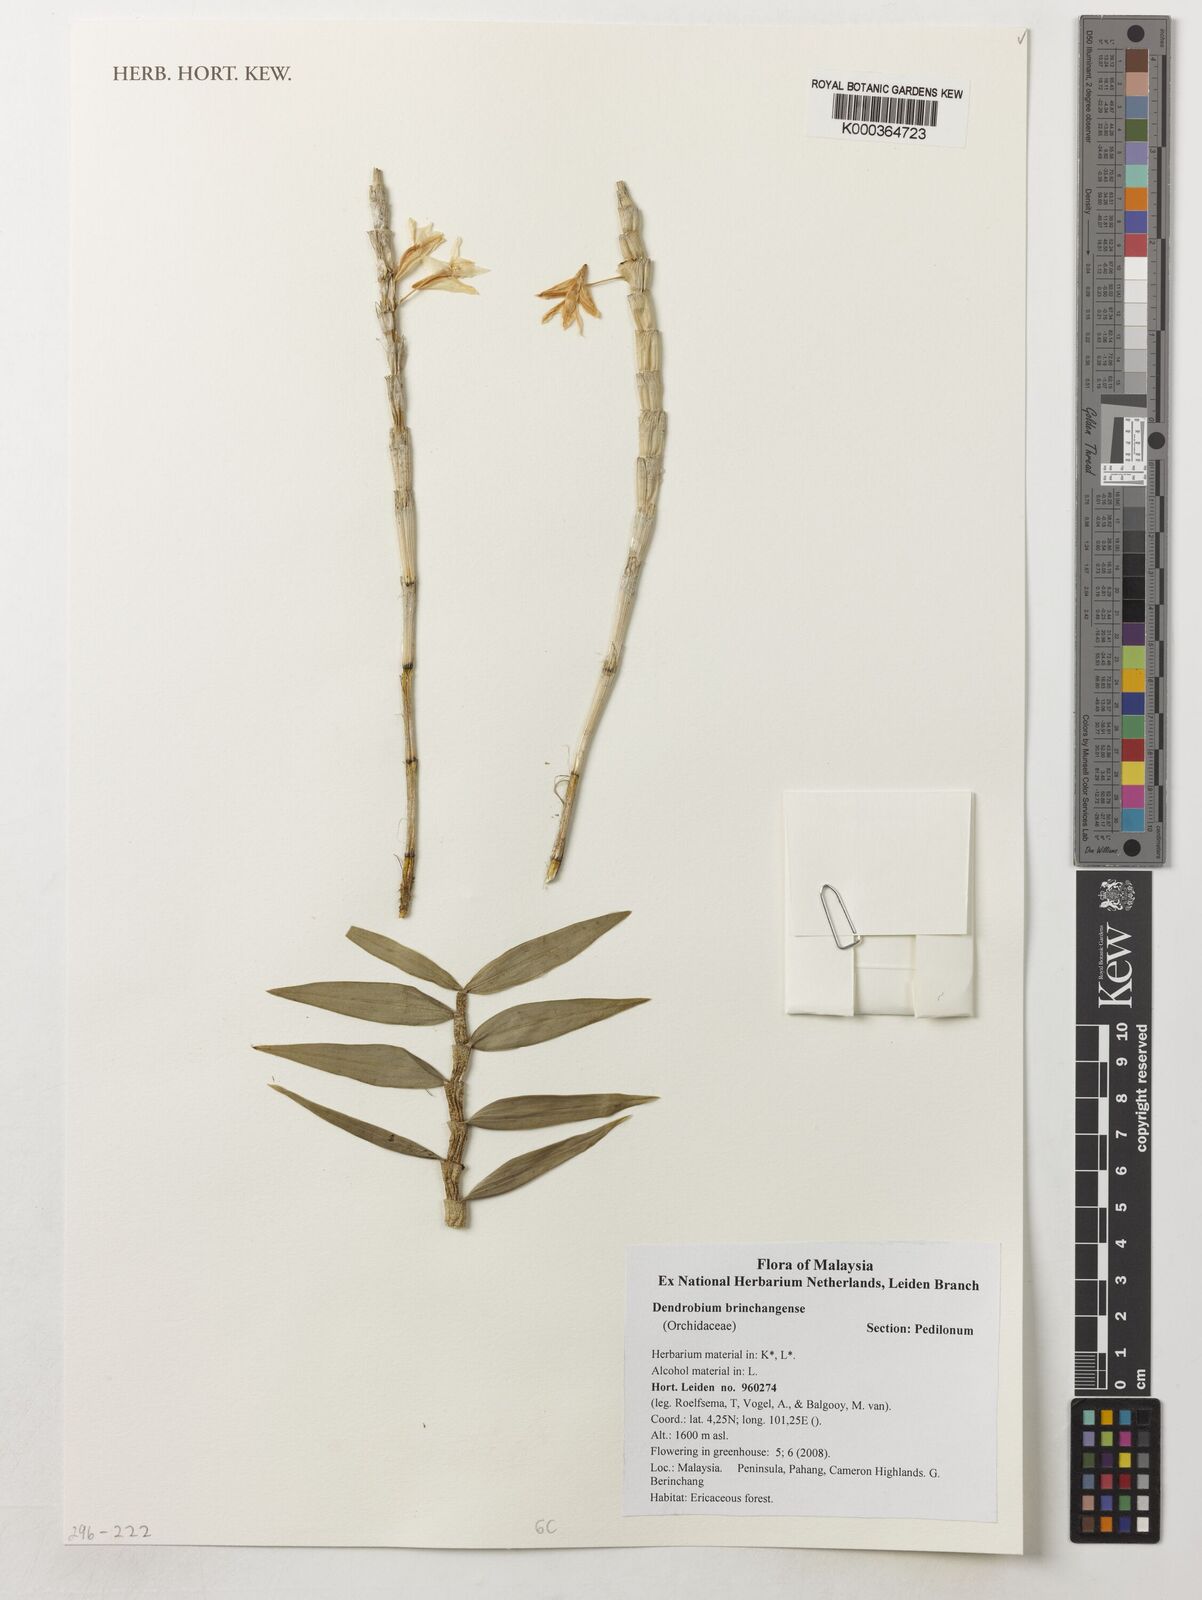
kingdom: Plantae
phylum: Tracheophyta
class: Liliopsida
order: Asparagales
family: Orchidaceae
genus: Dendrobium
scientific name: Dendrobium hasseltii
